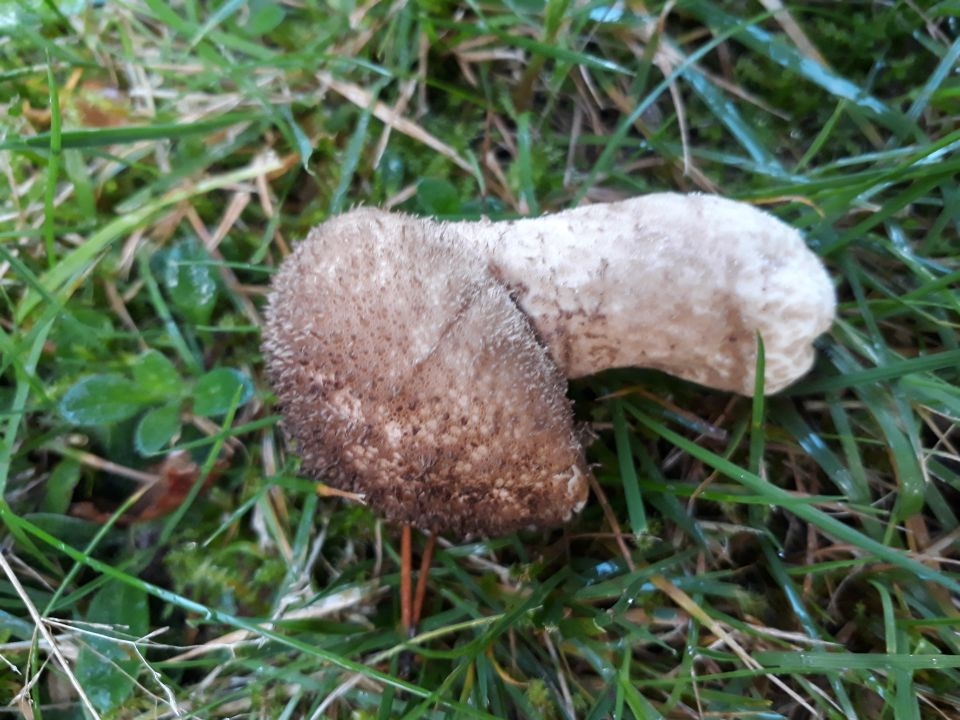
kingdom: Fungi
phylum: Basidiomycota
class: Agaricomycetes
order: Agaricales
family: Lycoperdaceae
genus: Lycoperdon
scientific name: Lycoperdon perlatum
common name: krystal-støvbold
